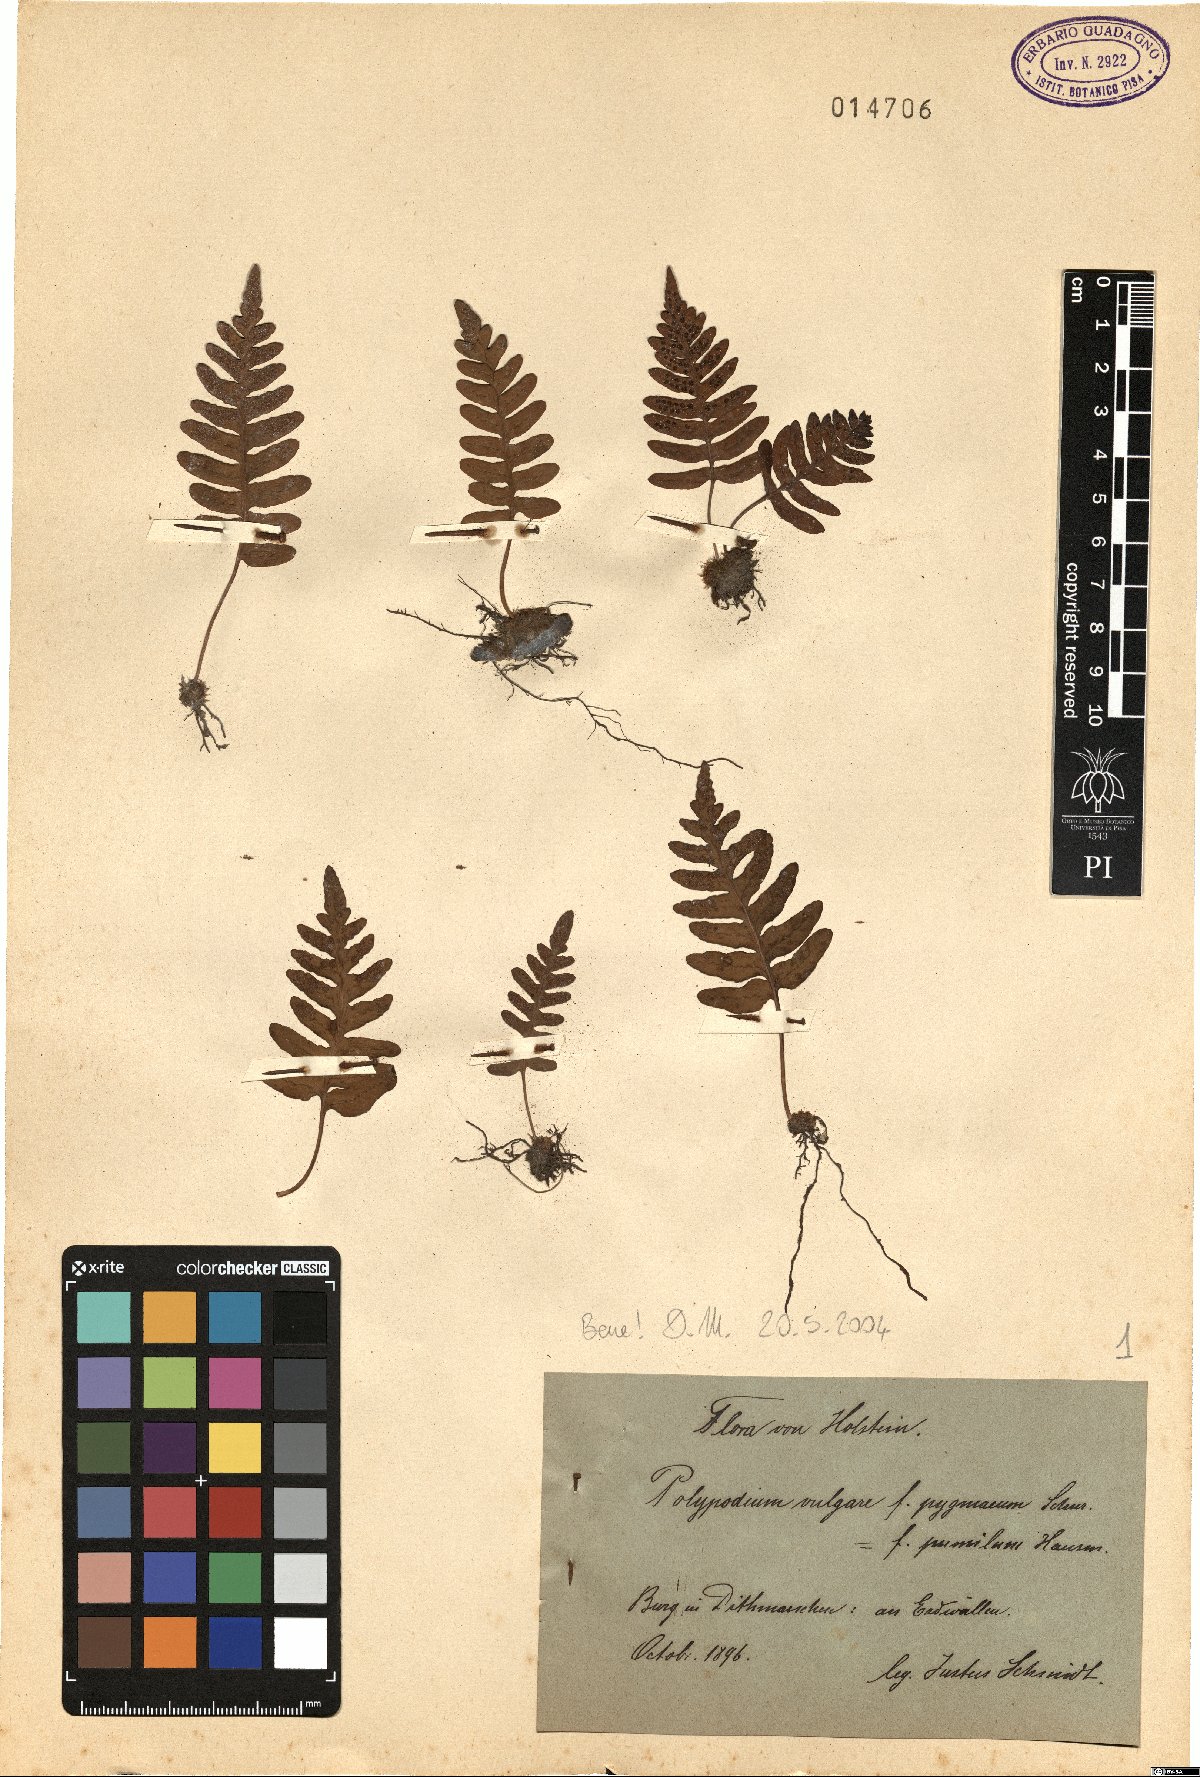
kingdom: Plantae
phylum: Tracheophyta
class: Polypodiopsida
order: Polypodiales
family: Polypodiaceae
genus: Polypodium
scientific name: Polypodium vulgare
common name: Common polypody
